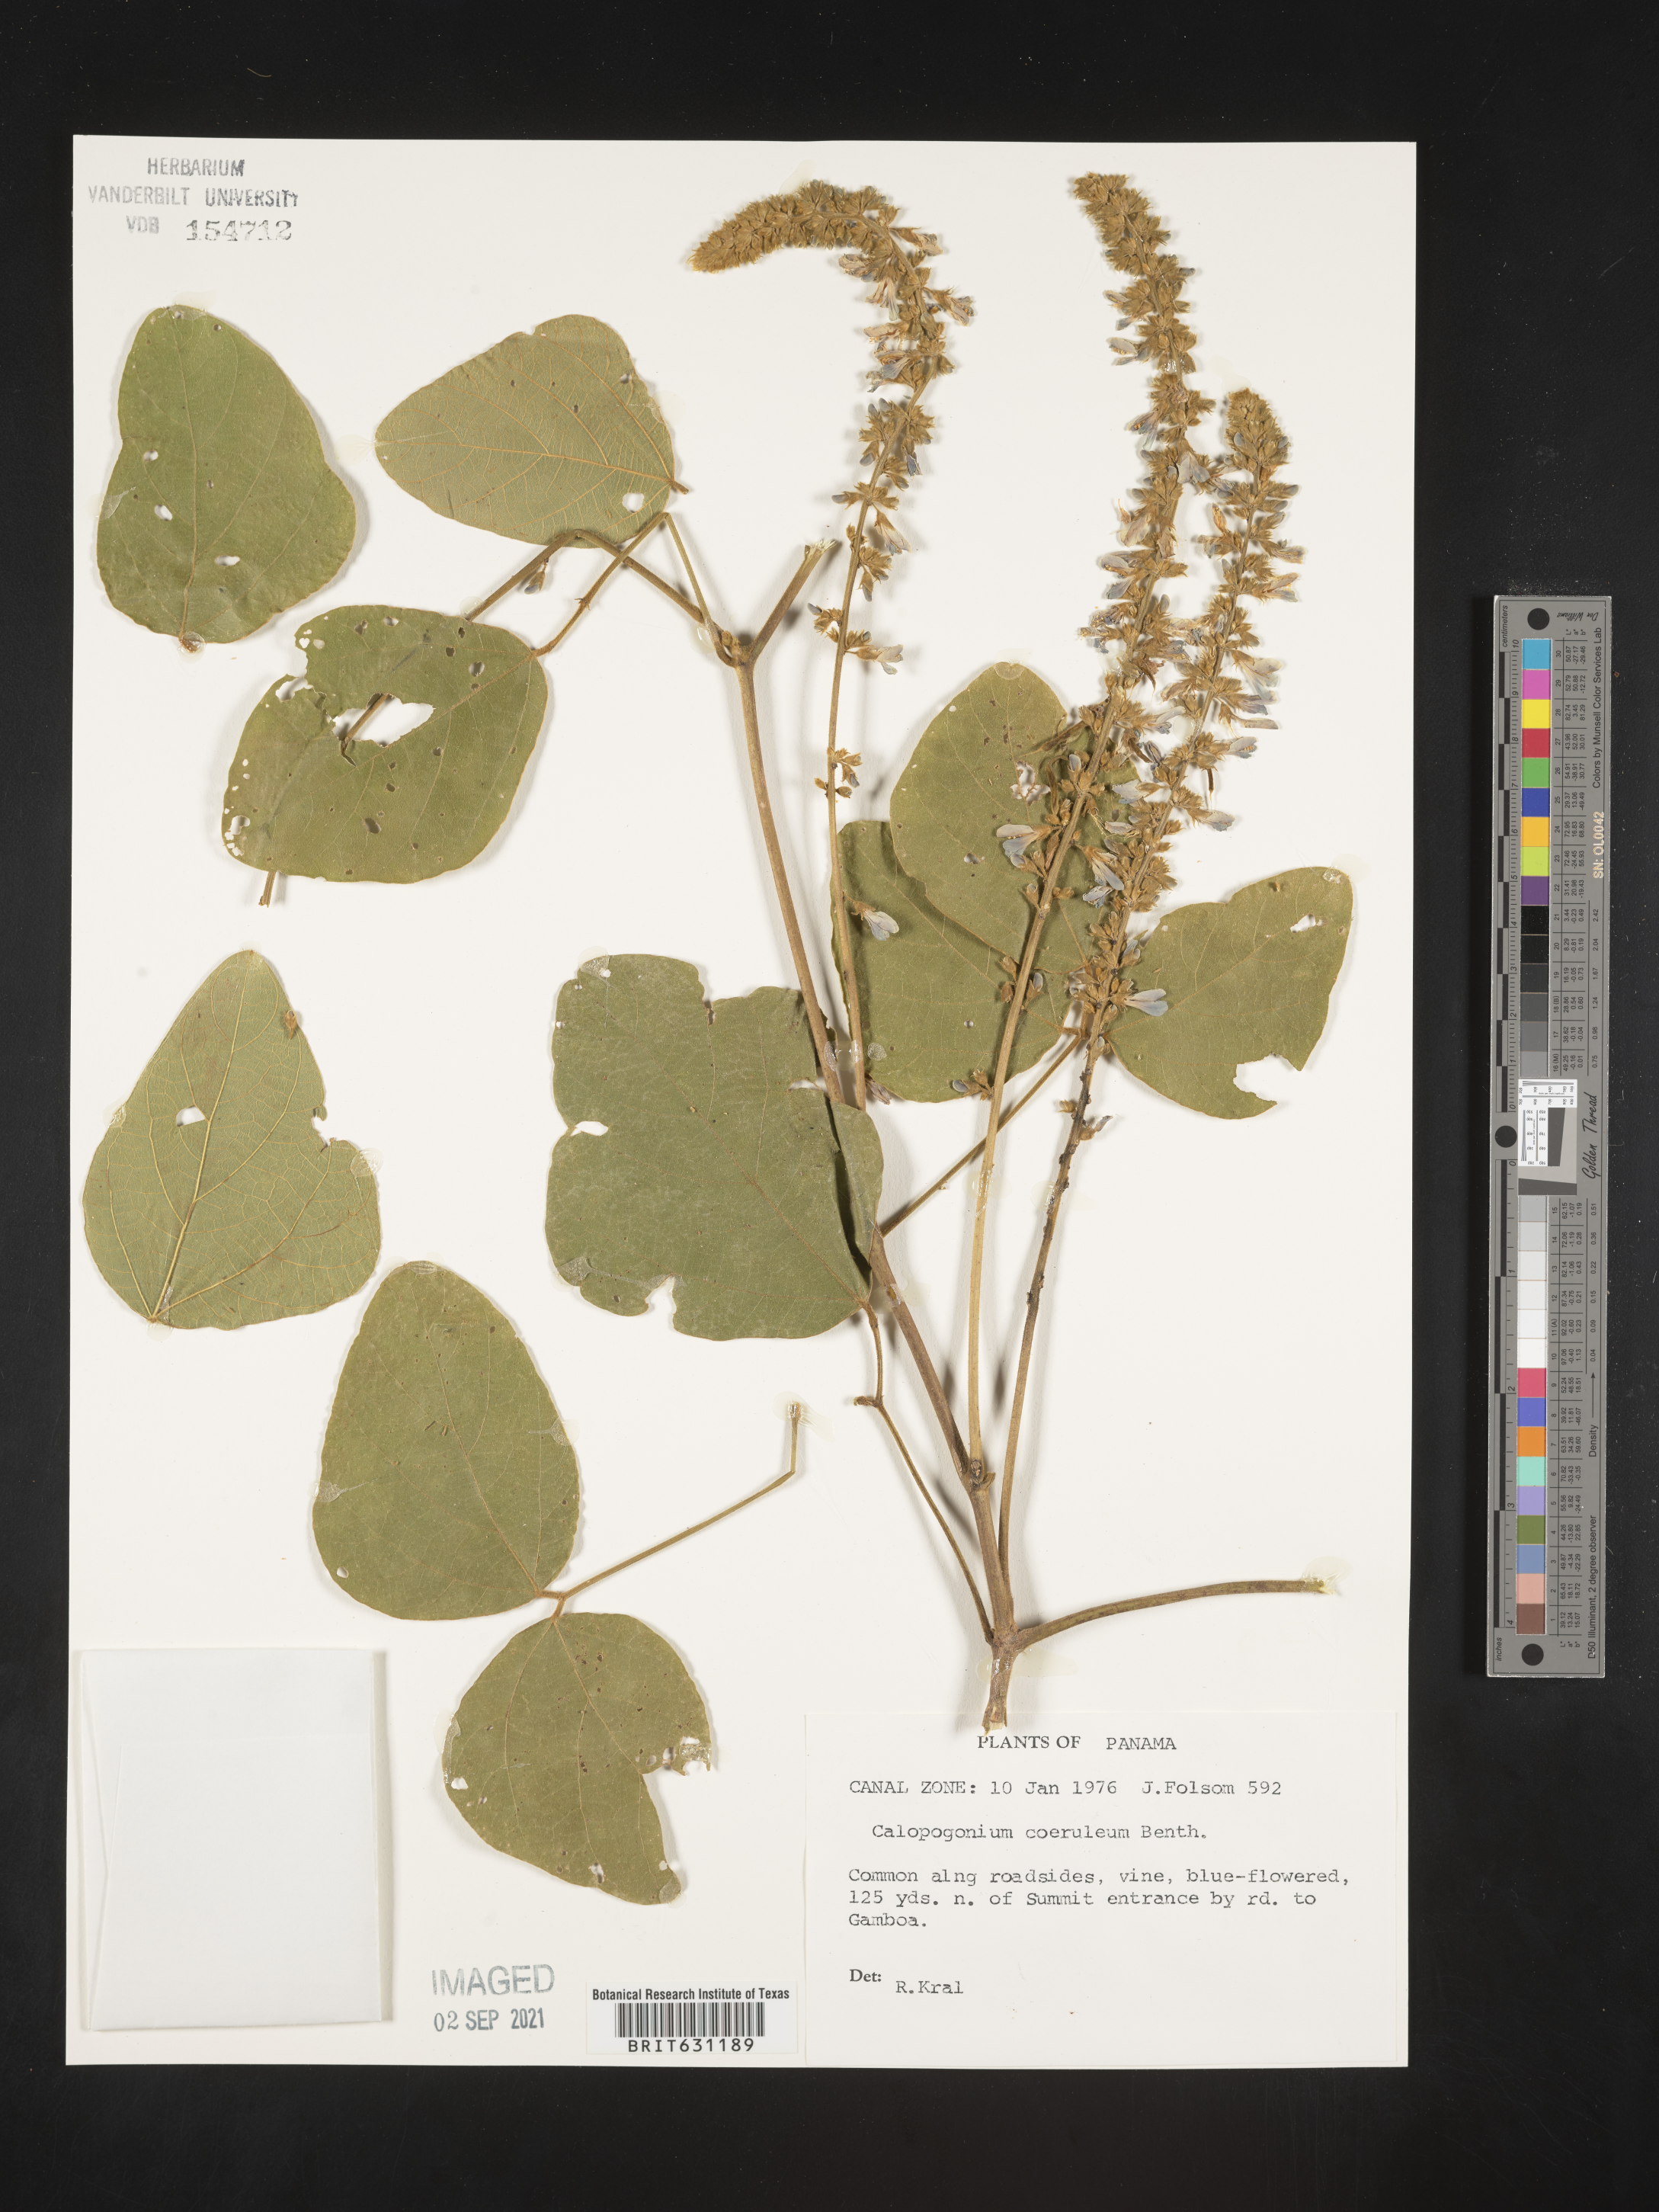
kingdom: Plantae
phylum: Tracheophyta
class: Magnoliopsida
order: Fabales
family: Fabaceae
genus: Calopogonium
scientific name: Calopogonium caeruleum
